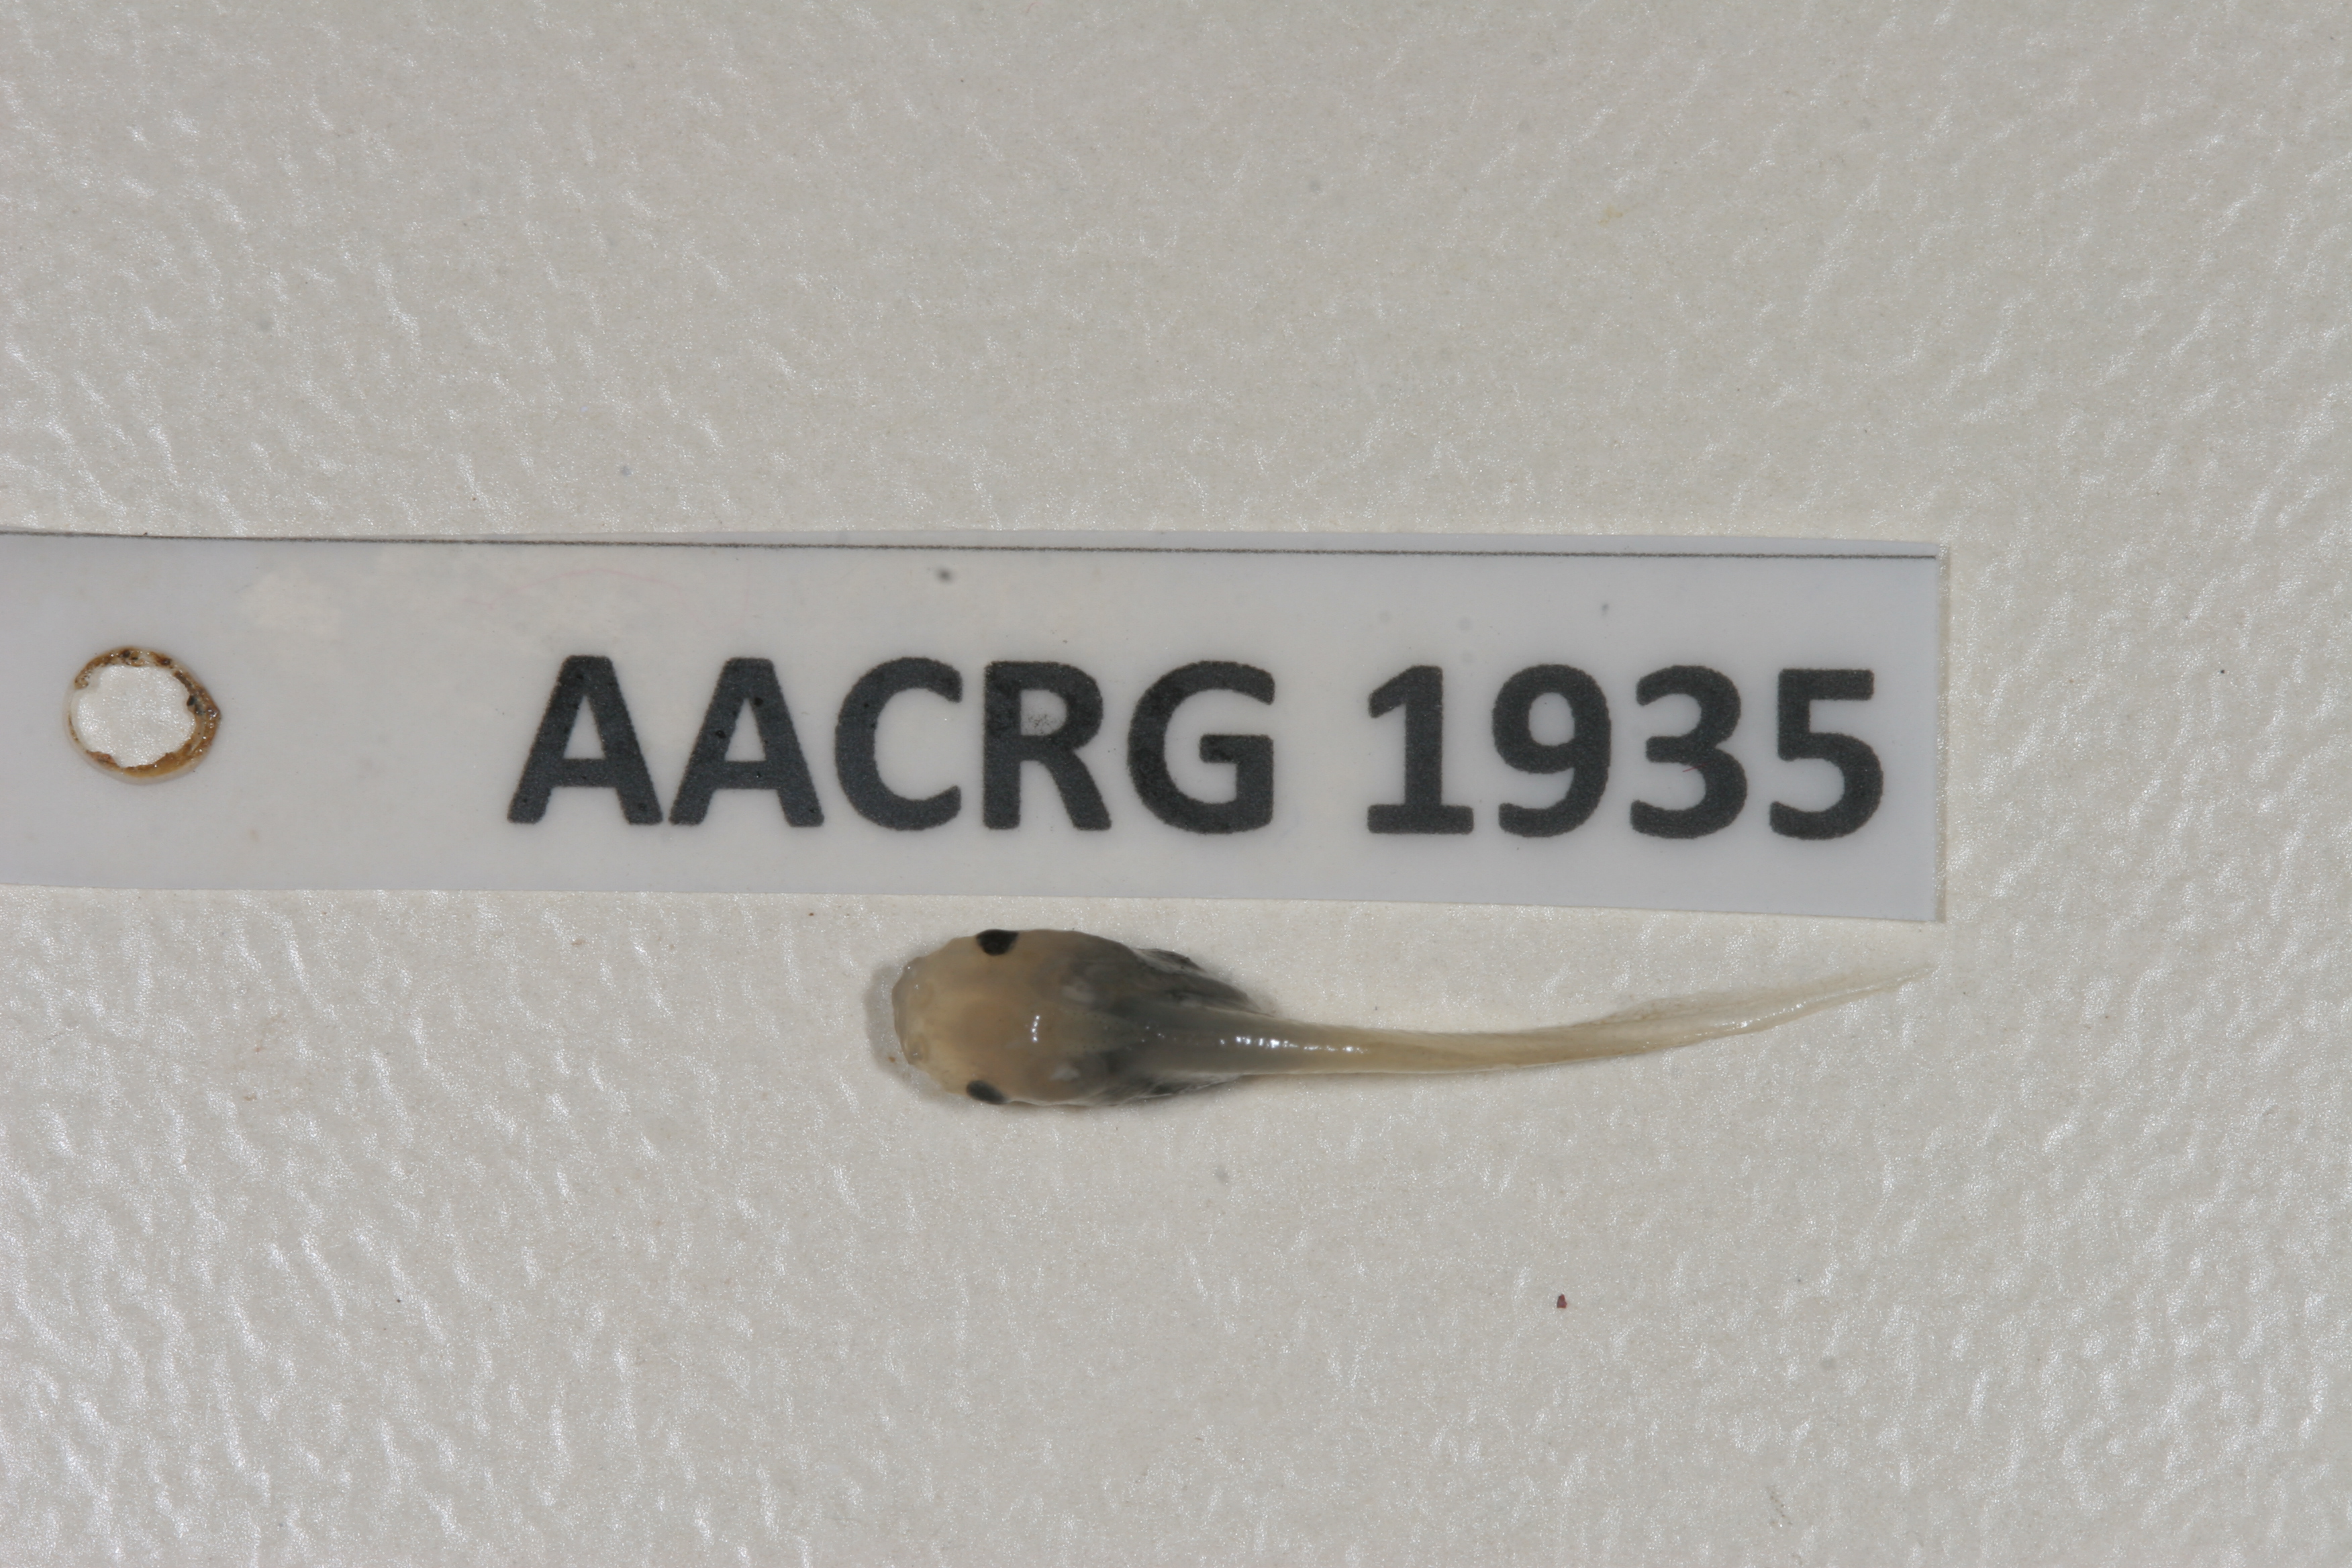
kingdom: Animalia
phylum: Chordata
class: Amphibia
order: Anura
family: Pipidae
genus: Xenopus
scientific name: Xenopus muelleri
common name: Muller's clawed frog
